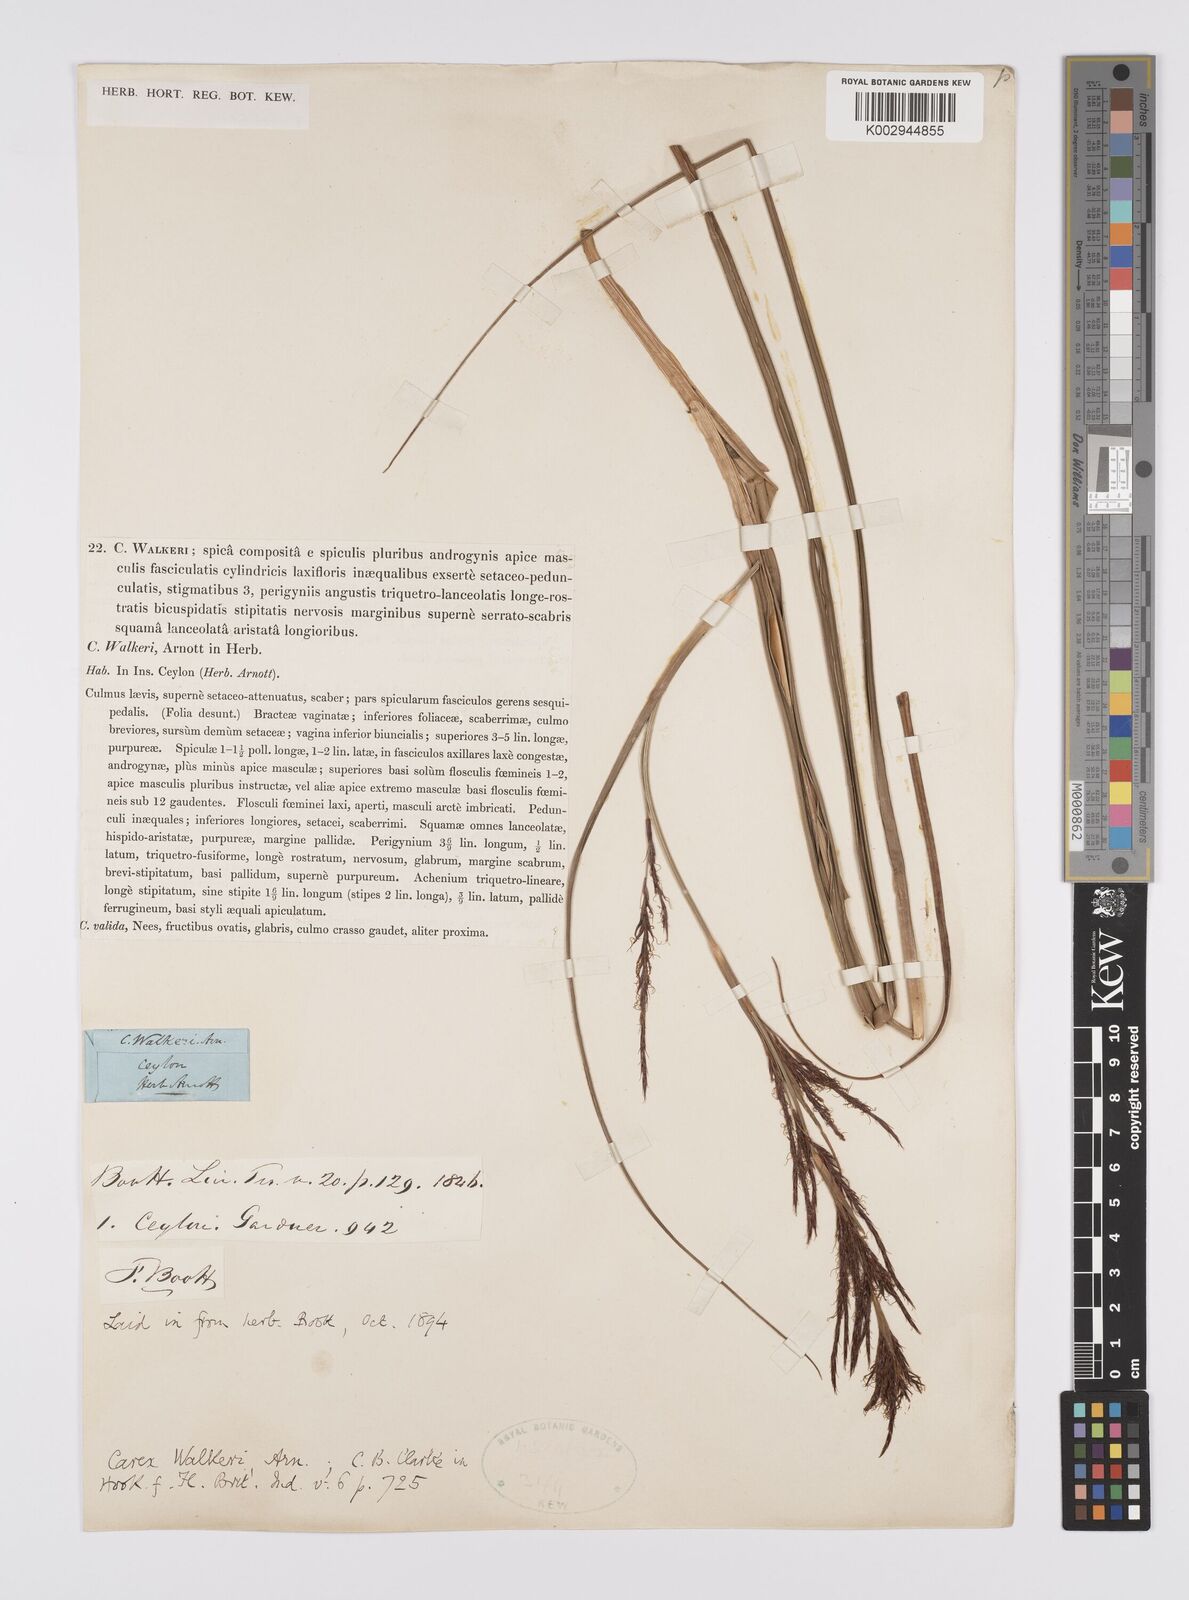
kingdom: Plantae
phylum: Tracheophyta
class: Liliopsida
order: Poales
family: Cyperaceae
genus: Carex
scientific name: Carex walkeri
